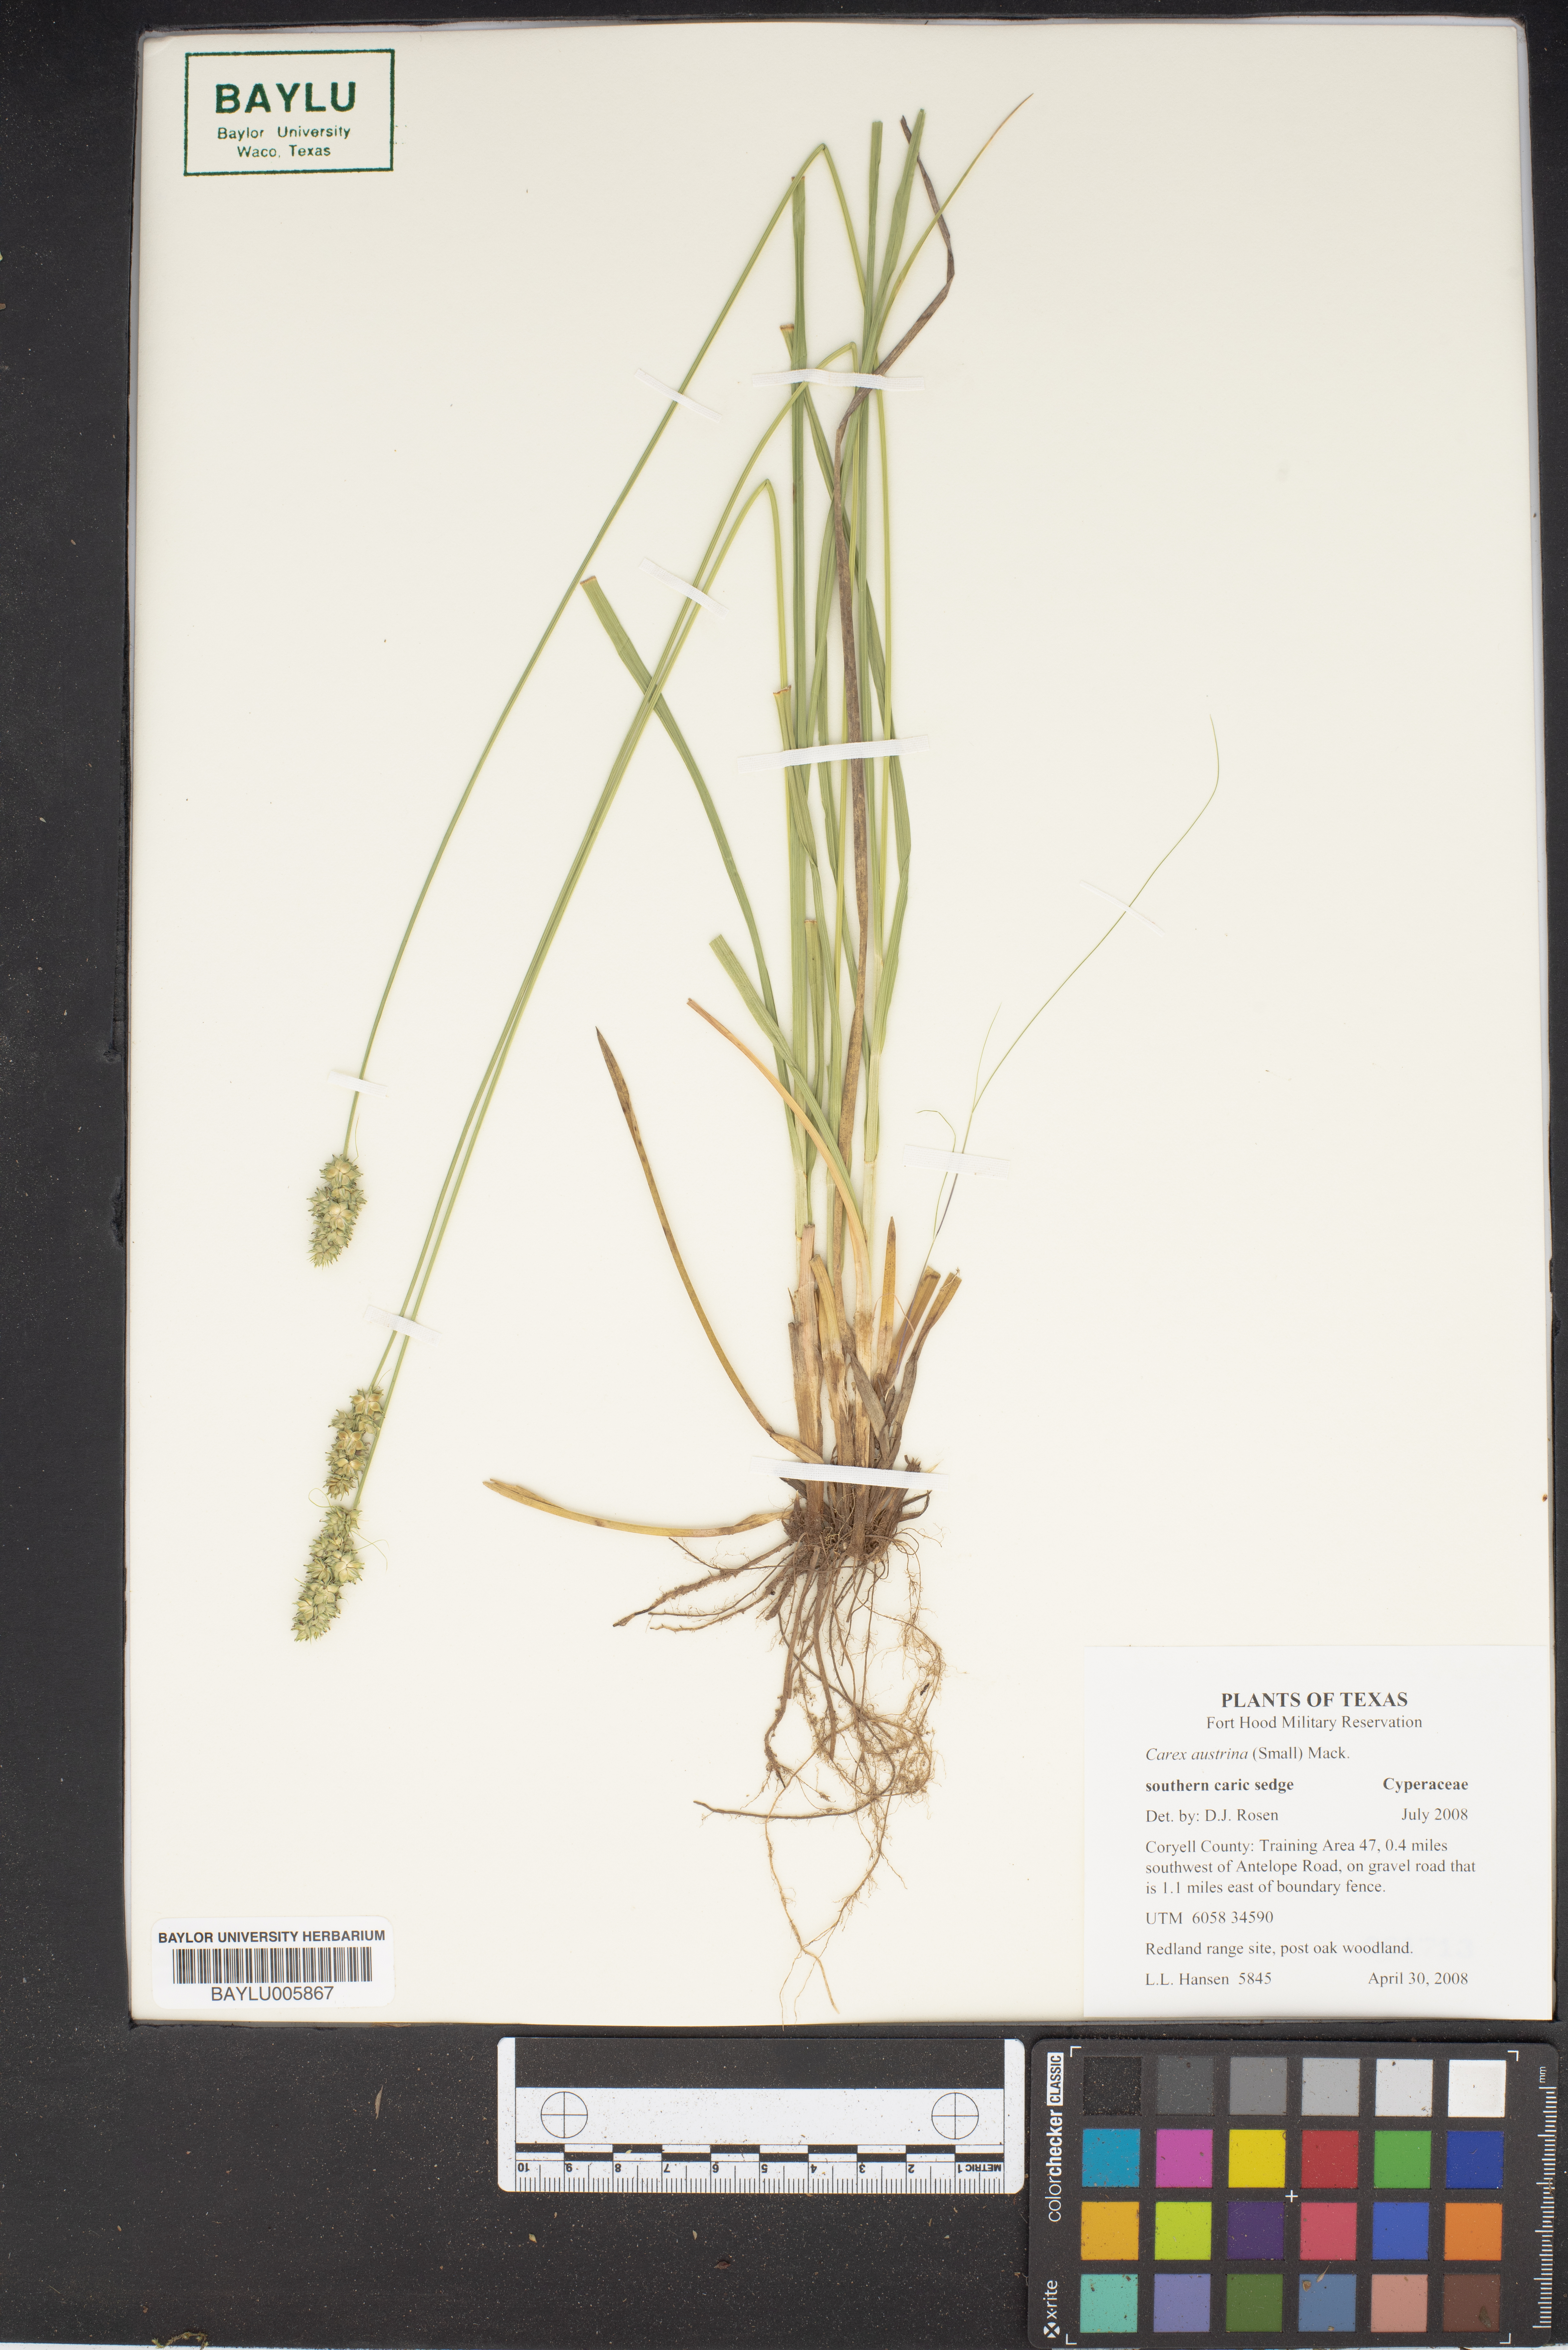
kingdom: Plantae
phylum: Tracheophyta
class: Liliopsida
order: Poales
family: Cyperaceae
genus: Carex
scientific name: Carex austrina
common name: Southern sedge
